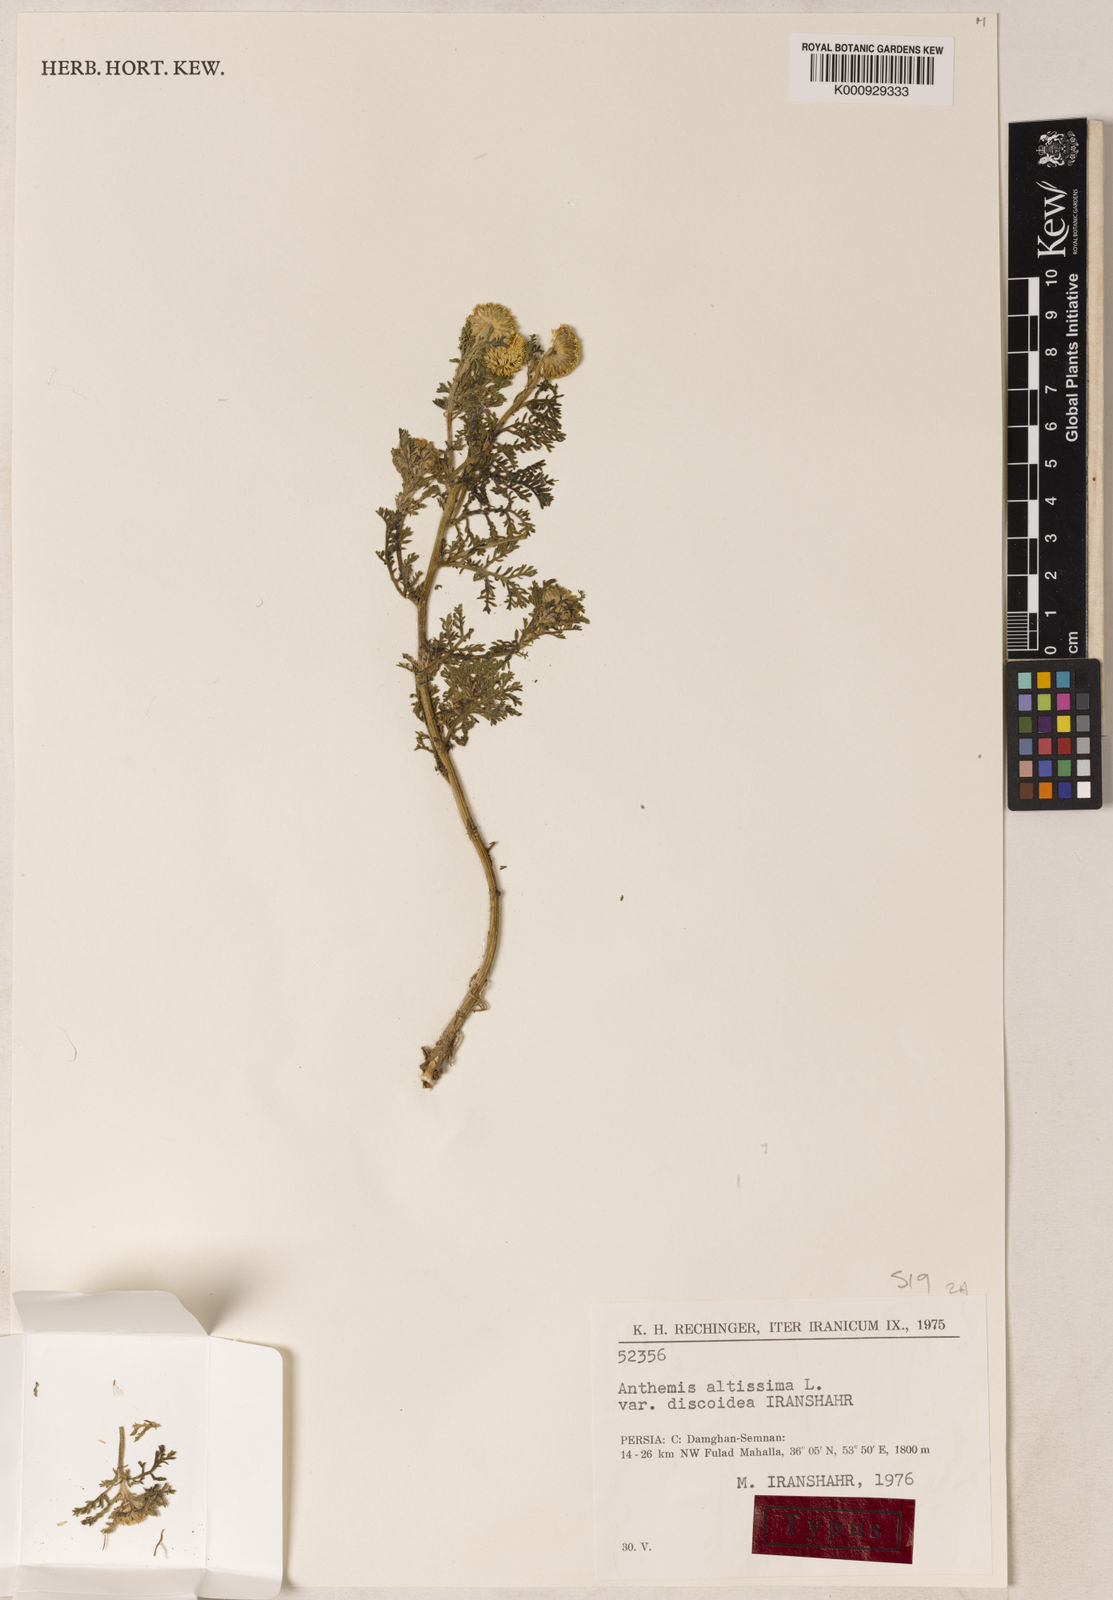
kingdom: Plantae
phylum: Tracheophyta
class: Magnoliopsida
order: Asterales
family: Asteraceae
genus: Cota
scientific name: Cota altissima
